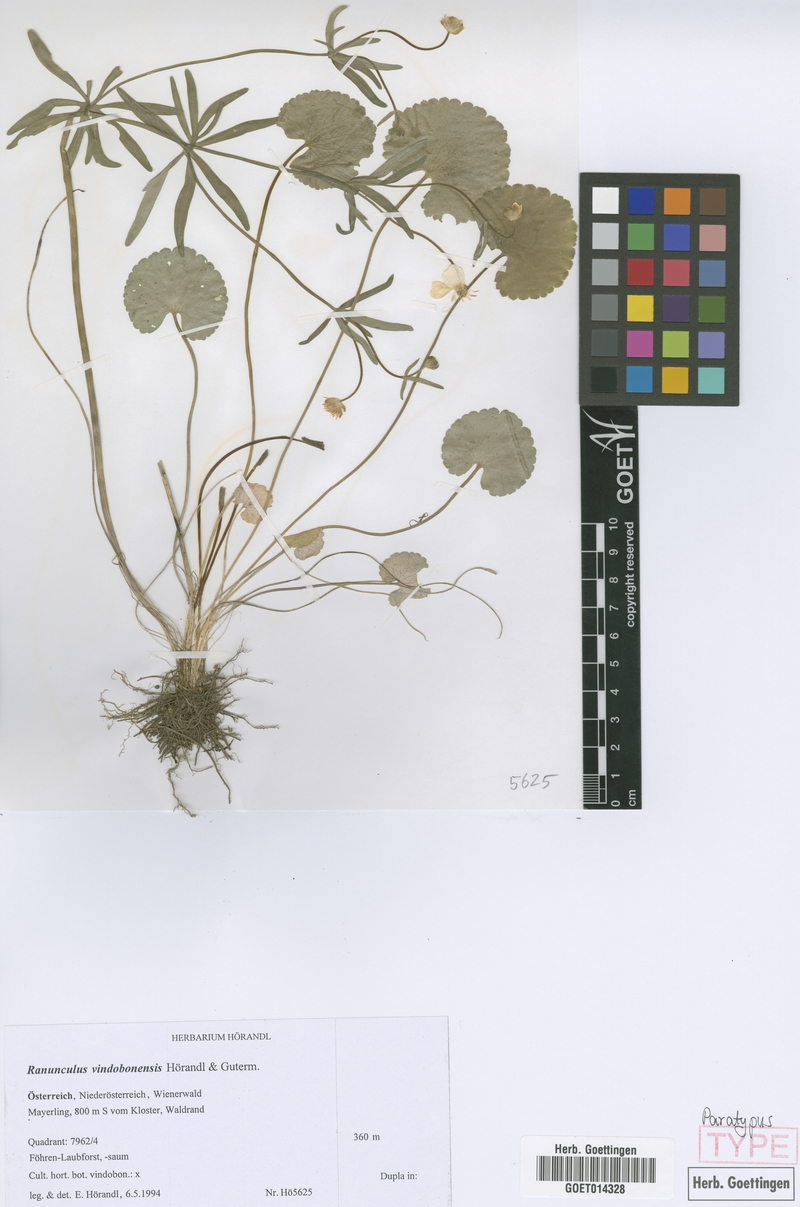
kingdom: Plantae
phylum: Tracheophyta
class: Magnoliopsida
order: Ranunculales
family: Ranunculaceae
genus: Ranunculus
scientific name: Ranunculus vindobonensis
